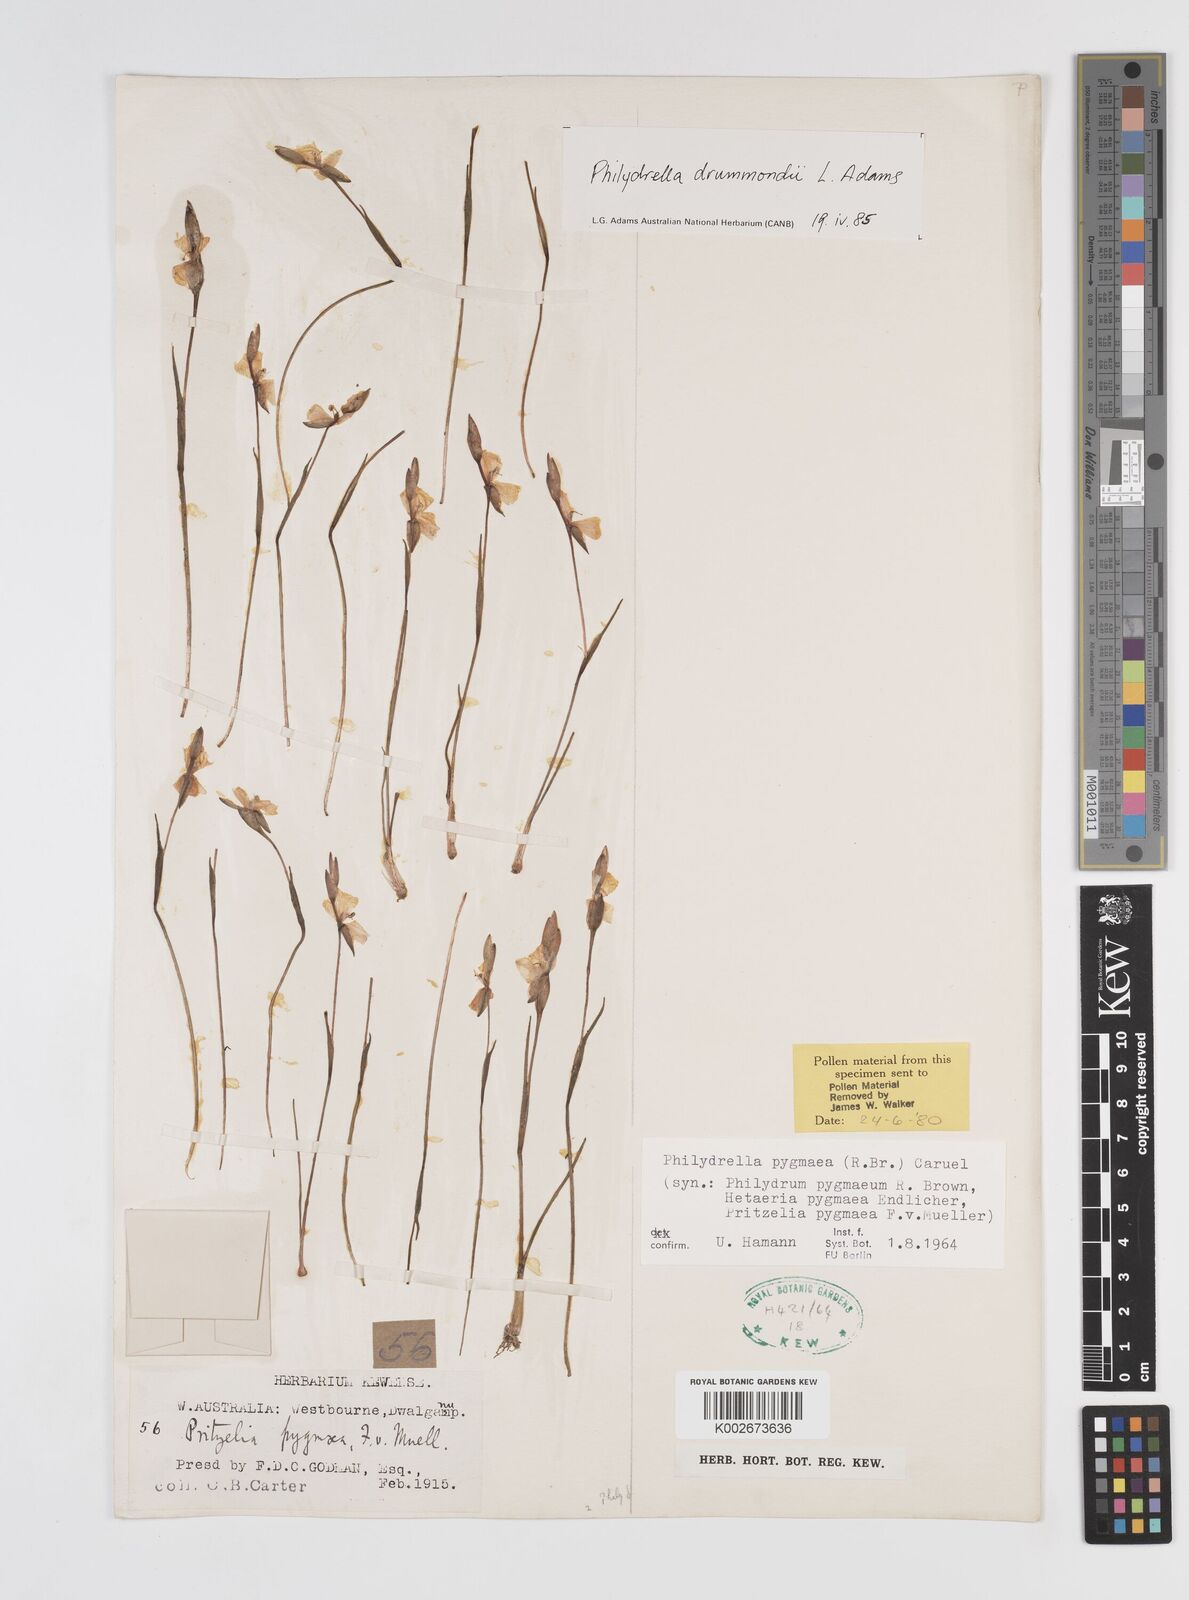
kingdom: Plantae
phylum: Tracheophyta
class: Liliopsida
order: Commelinales
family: Philydraceae
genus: Philydrella
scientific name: Philydrella drummondii
